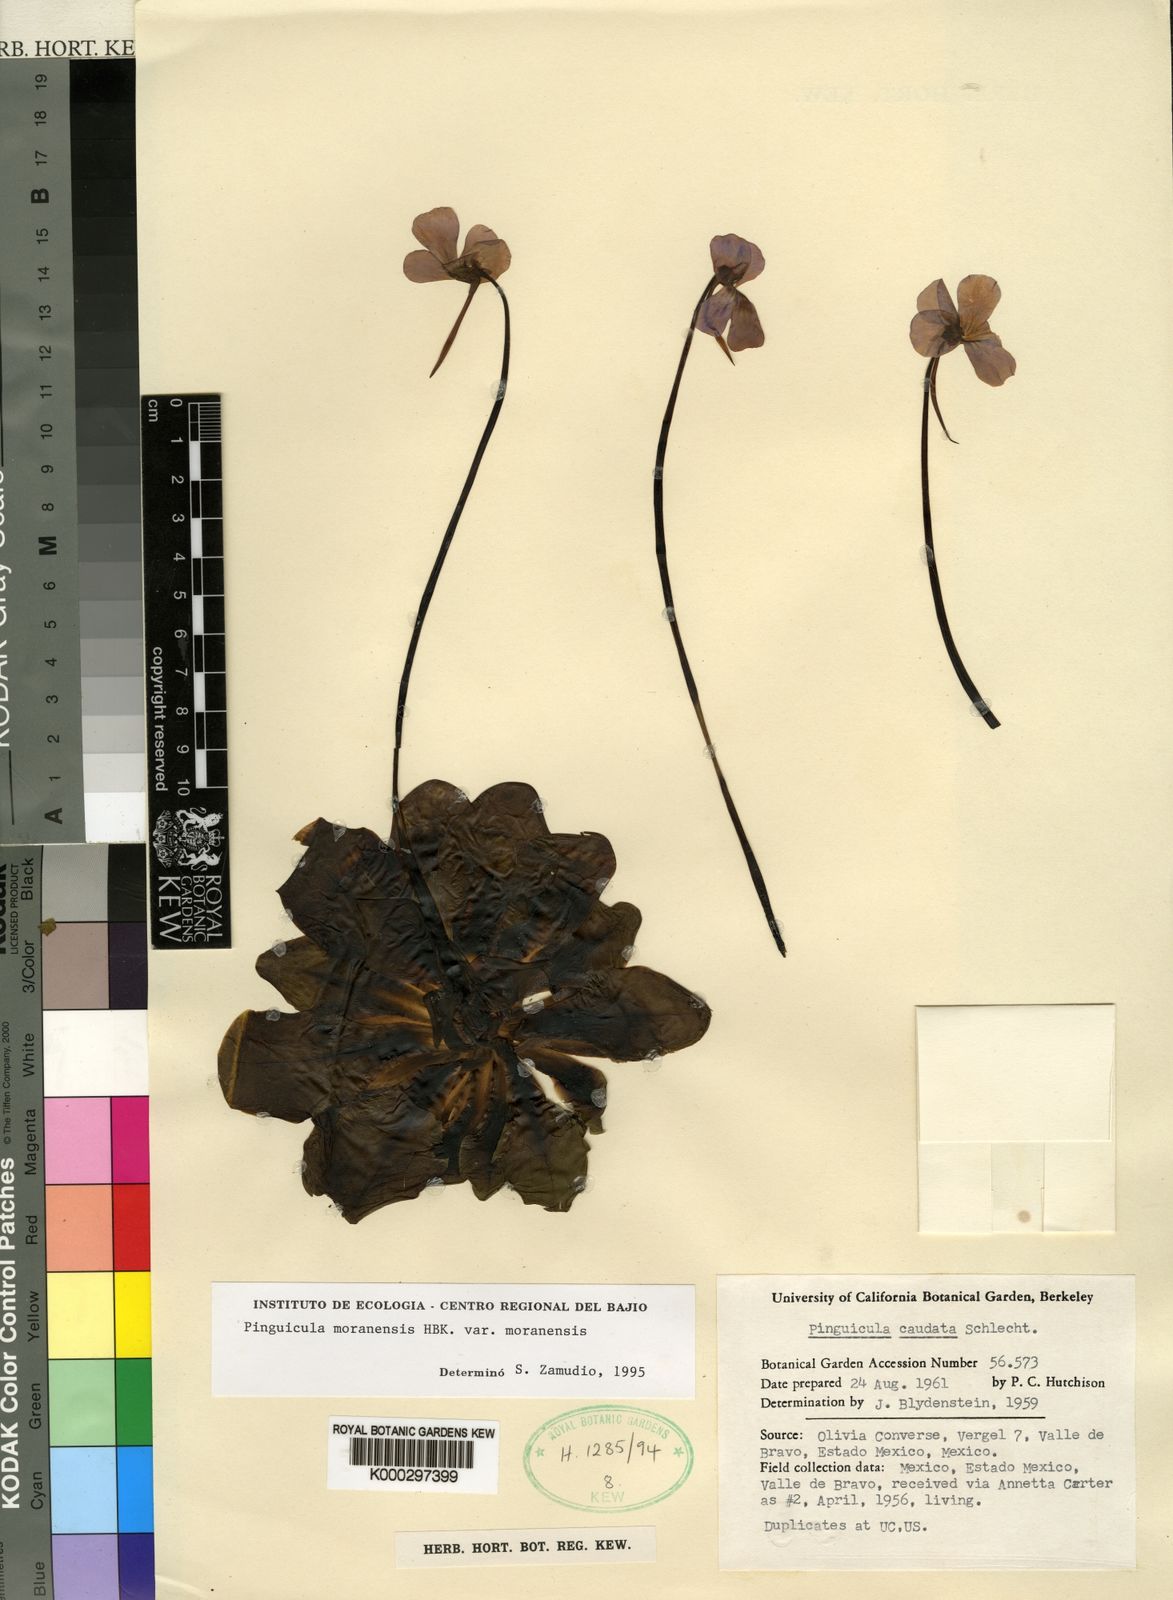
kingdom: Plantae
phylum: Tracheophyta
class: Magnoliopsida
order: Lamiales
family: Lentibulariaceae
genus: Pinguicula
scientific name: Pinguicula moranensis
